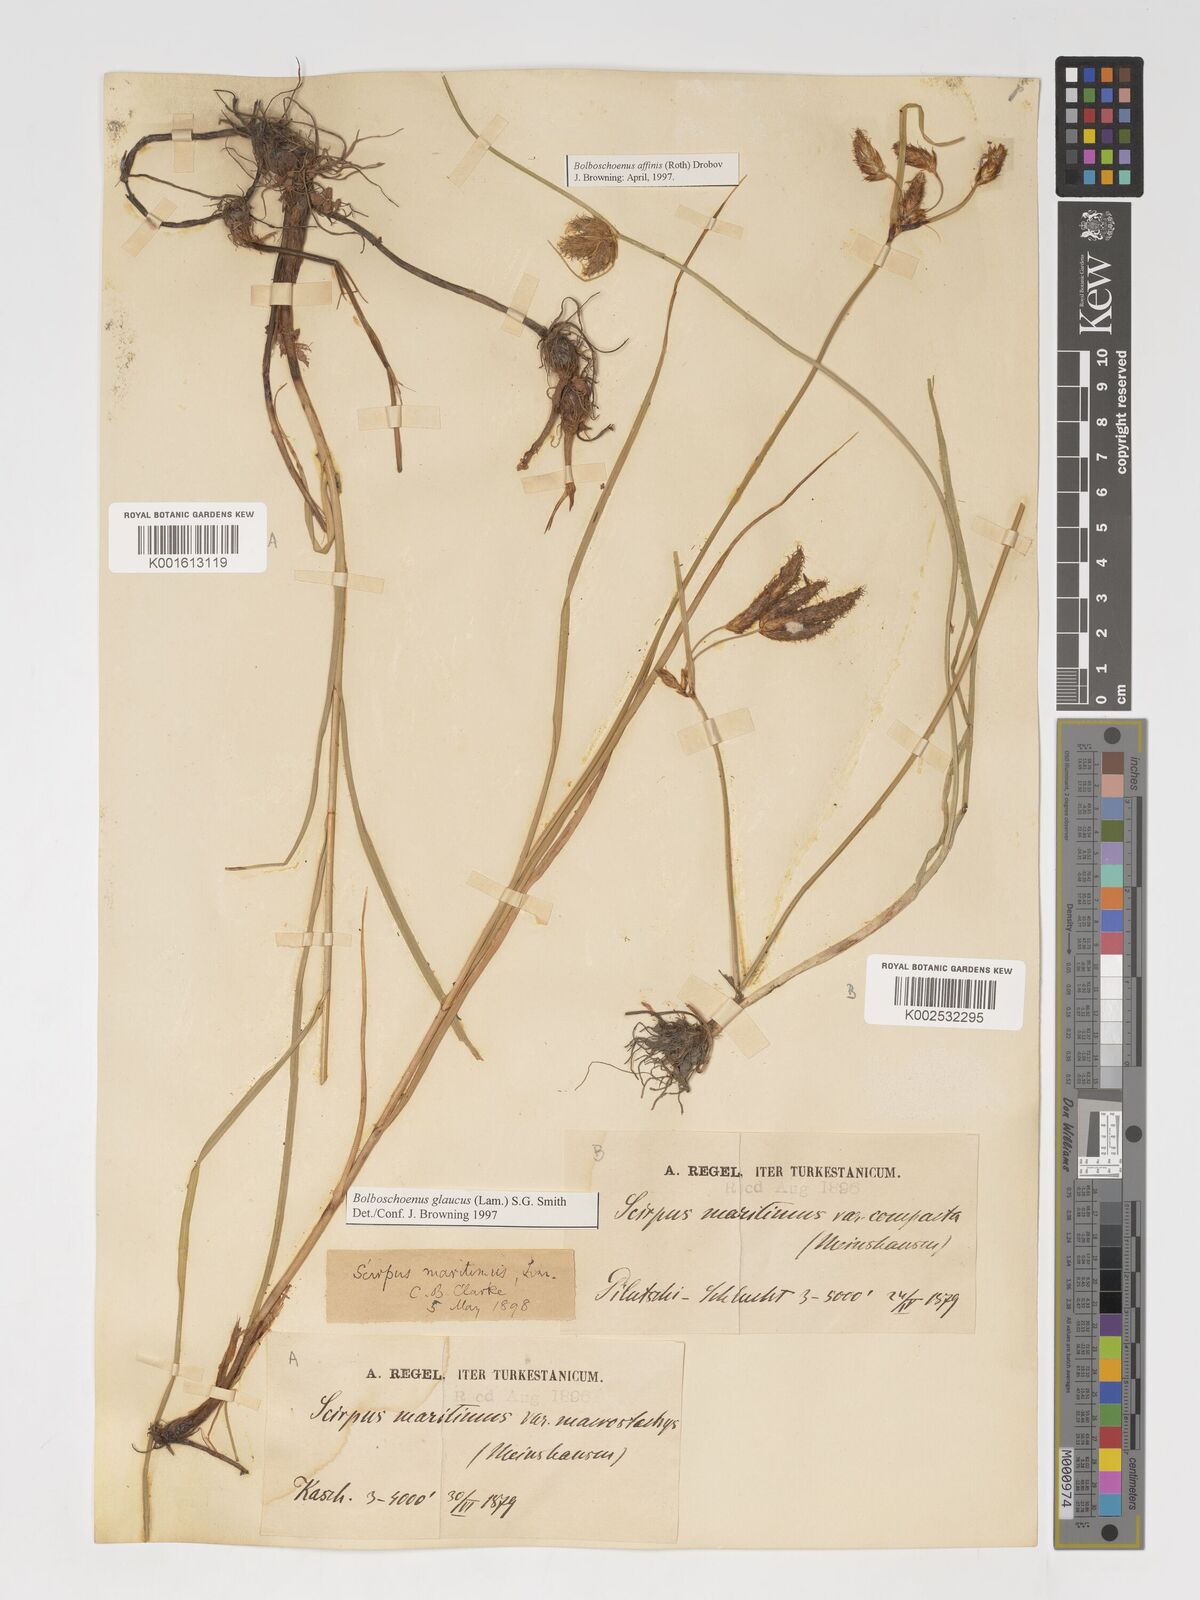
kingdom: Plantae
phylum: Tracheophyta
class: Liliopsida
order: Poales
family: Cyperaceae
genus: Bolboschoenus
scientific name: Bolboschoenus maritimus
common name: Sea club-rush
